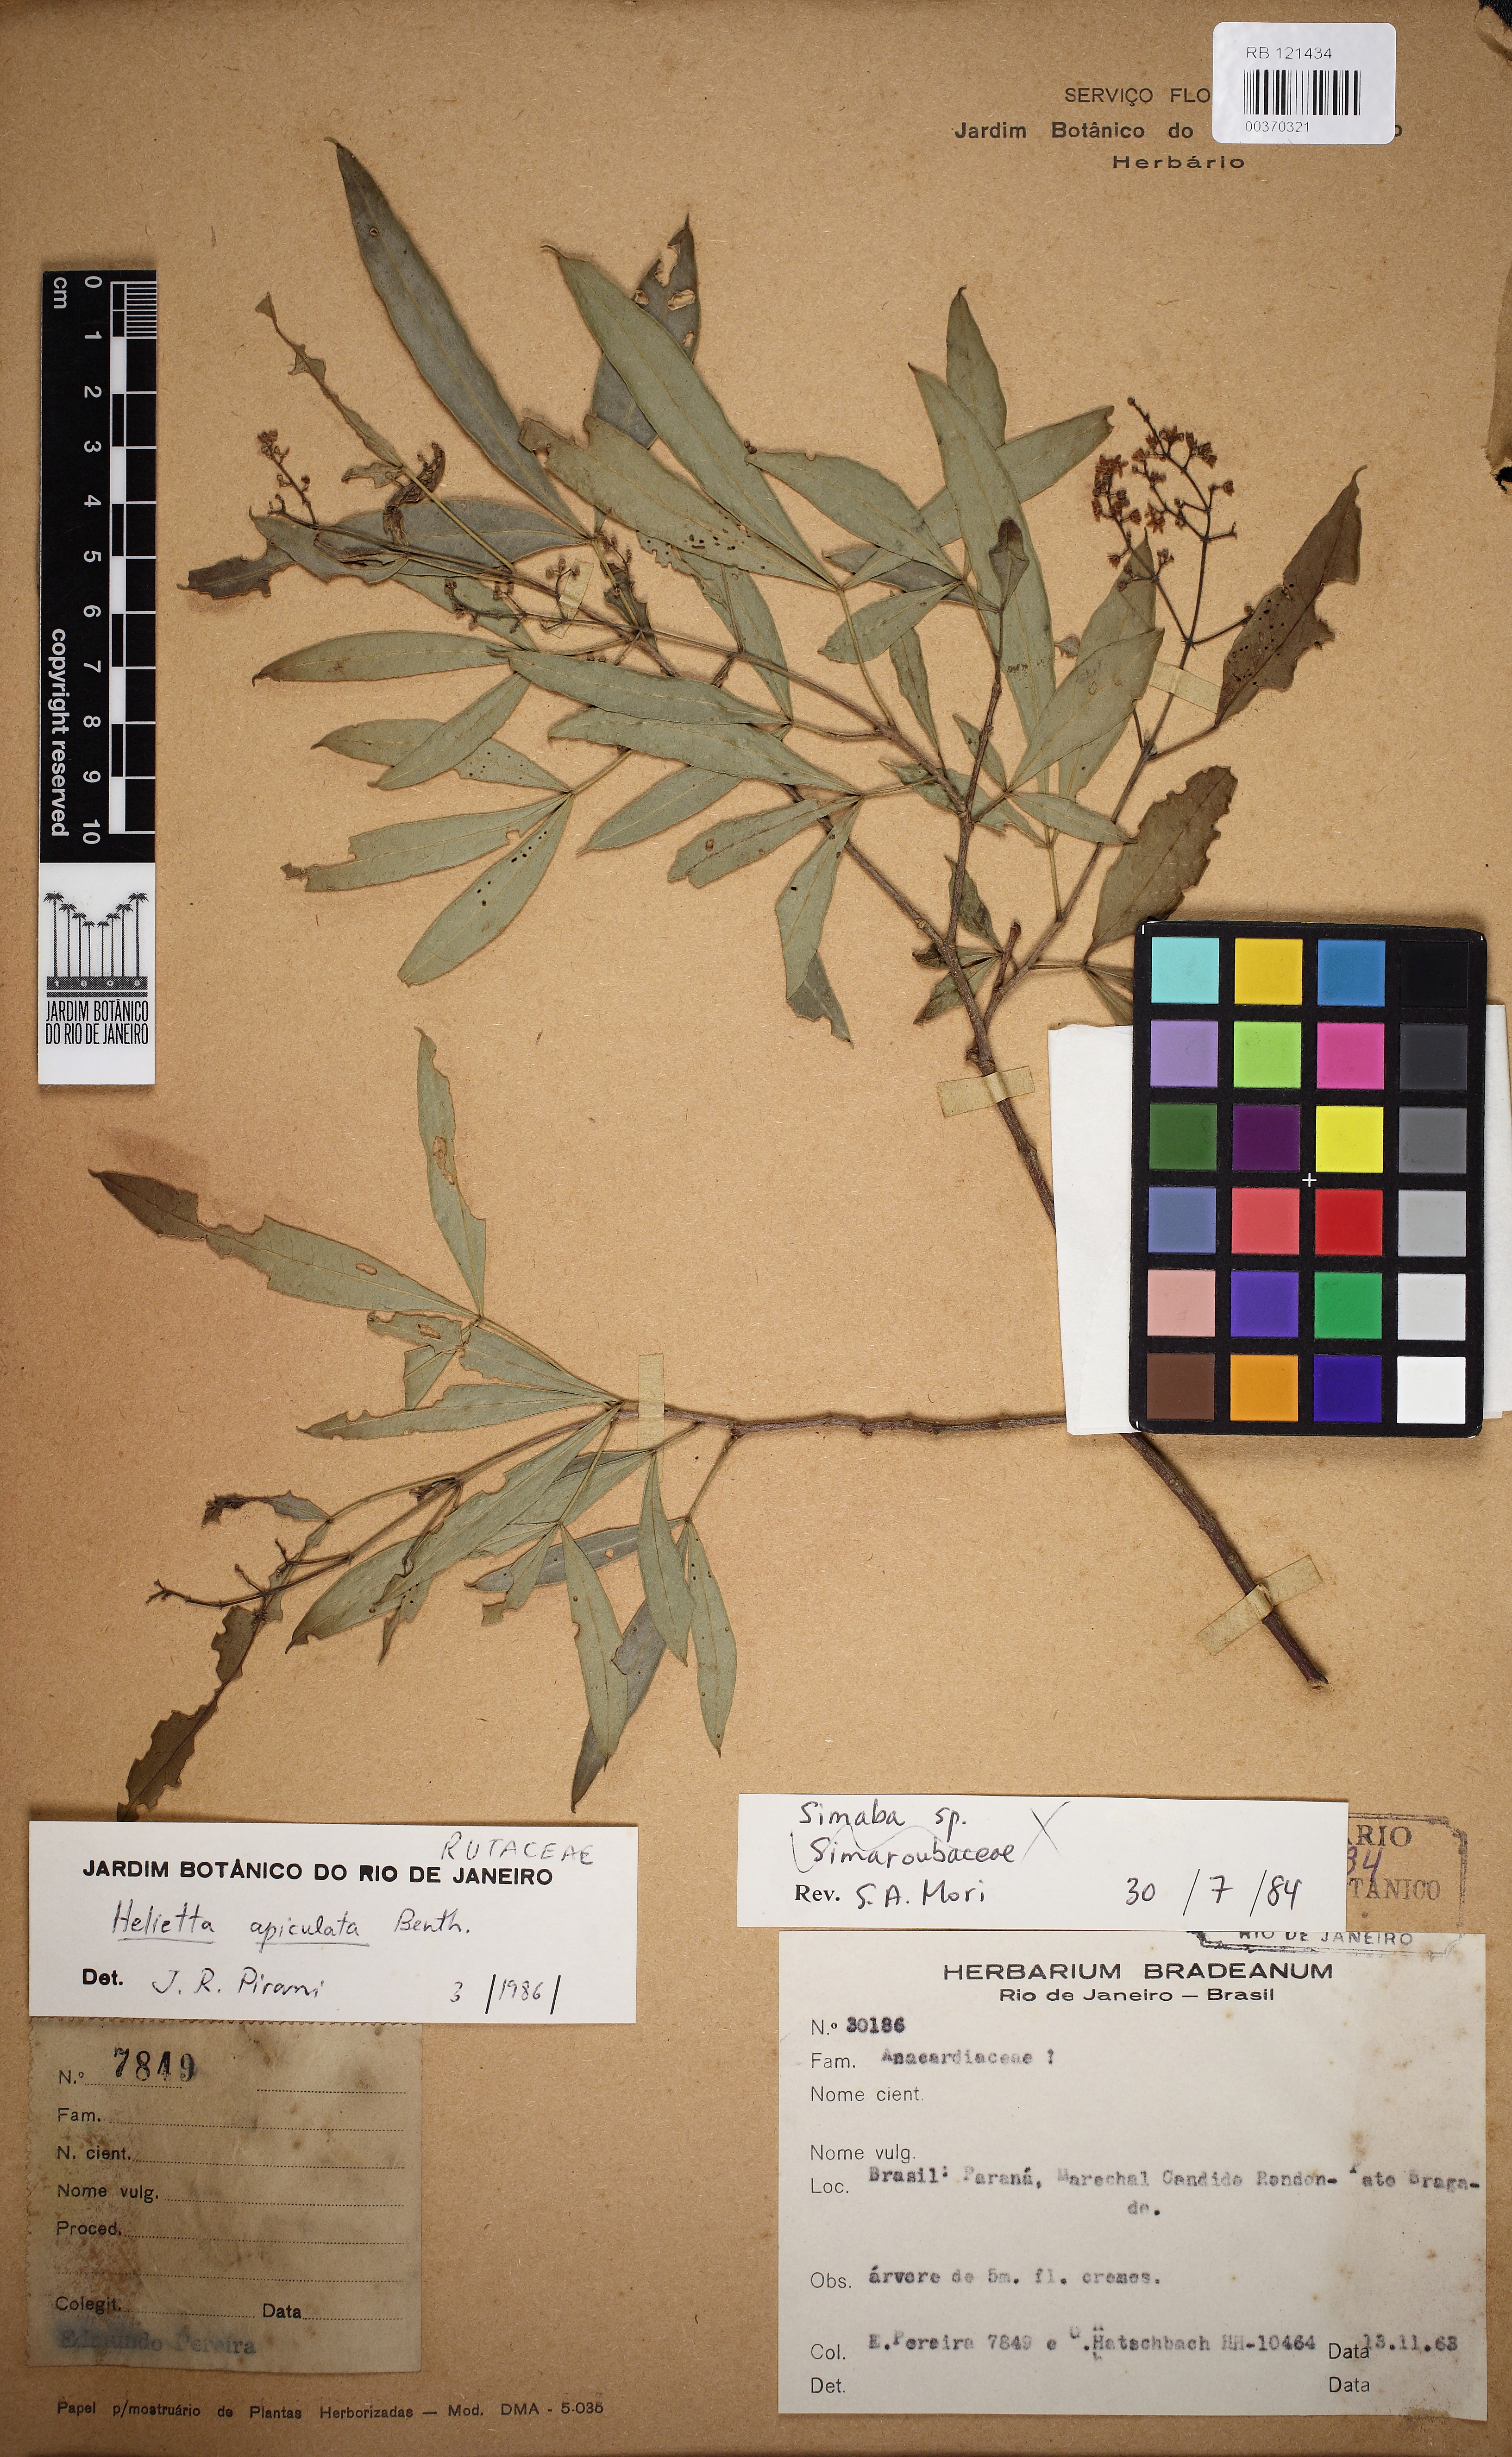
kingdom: Plantae
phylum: Tracheophyta
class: Magnoliopsida
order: Sapindales
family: Rutaceae
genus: Helietta
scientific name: Helietta apiculata
